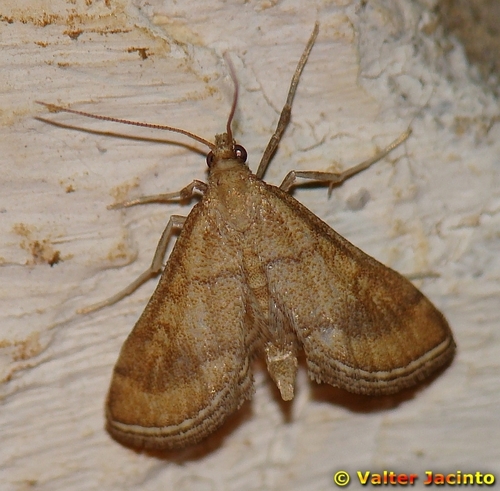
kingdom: Animalia
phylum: Arthropoda
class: Insecta
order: Lepidoptera
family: Crambidae
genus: Metasia
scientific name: Metasia ibericalis
